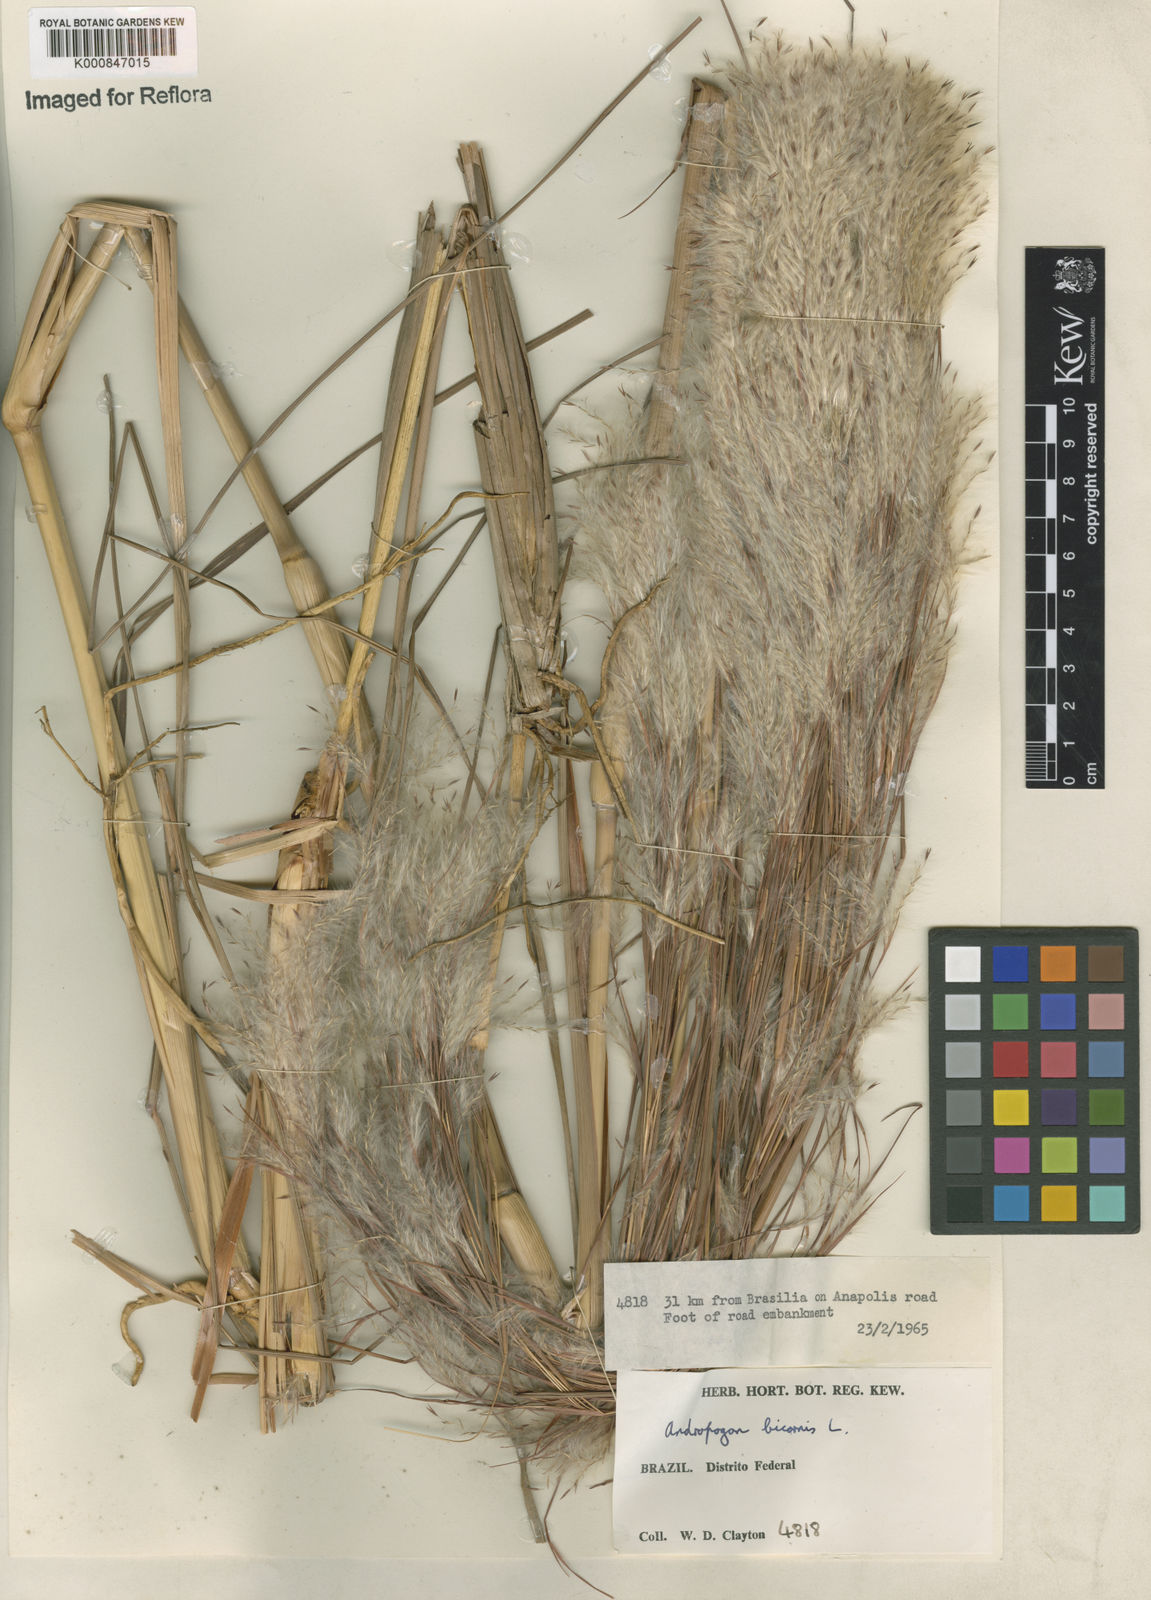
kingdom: Plantae
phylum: Tracheophyta
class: Liliopsida
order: Poales
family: Poaceae
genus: Andropogon
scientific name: Andropogon
